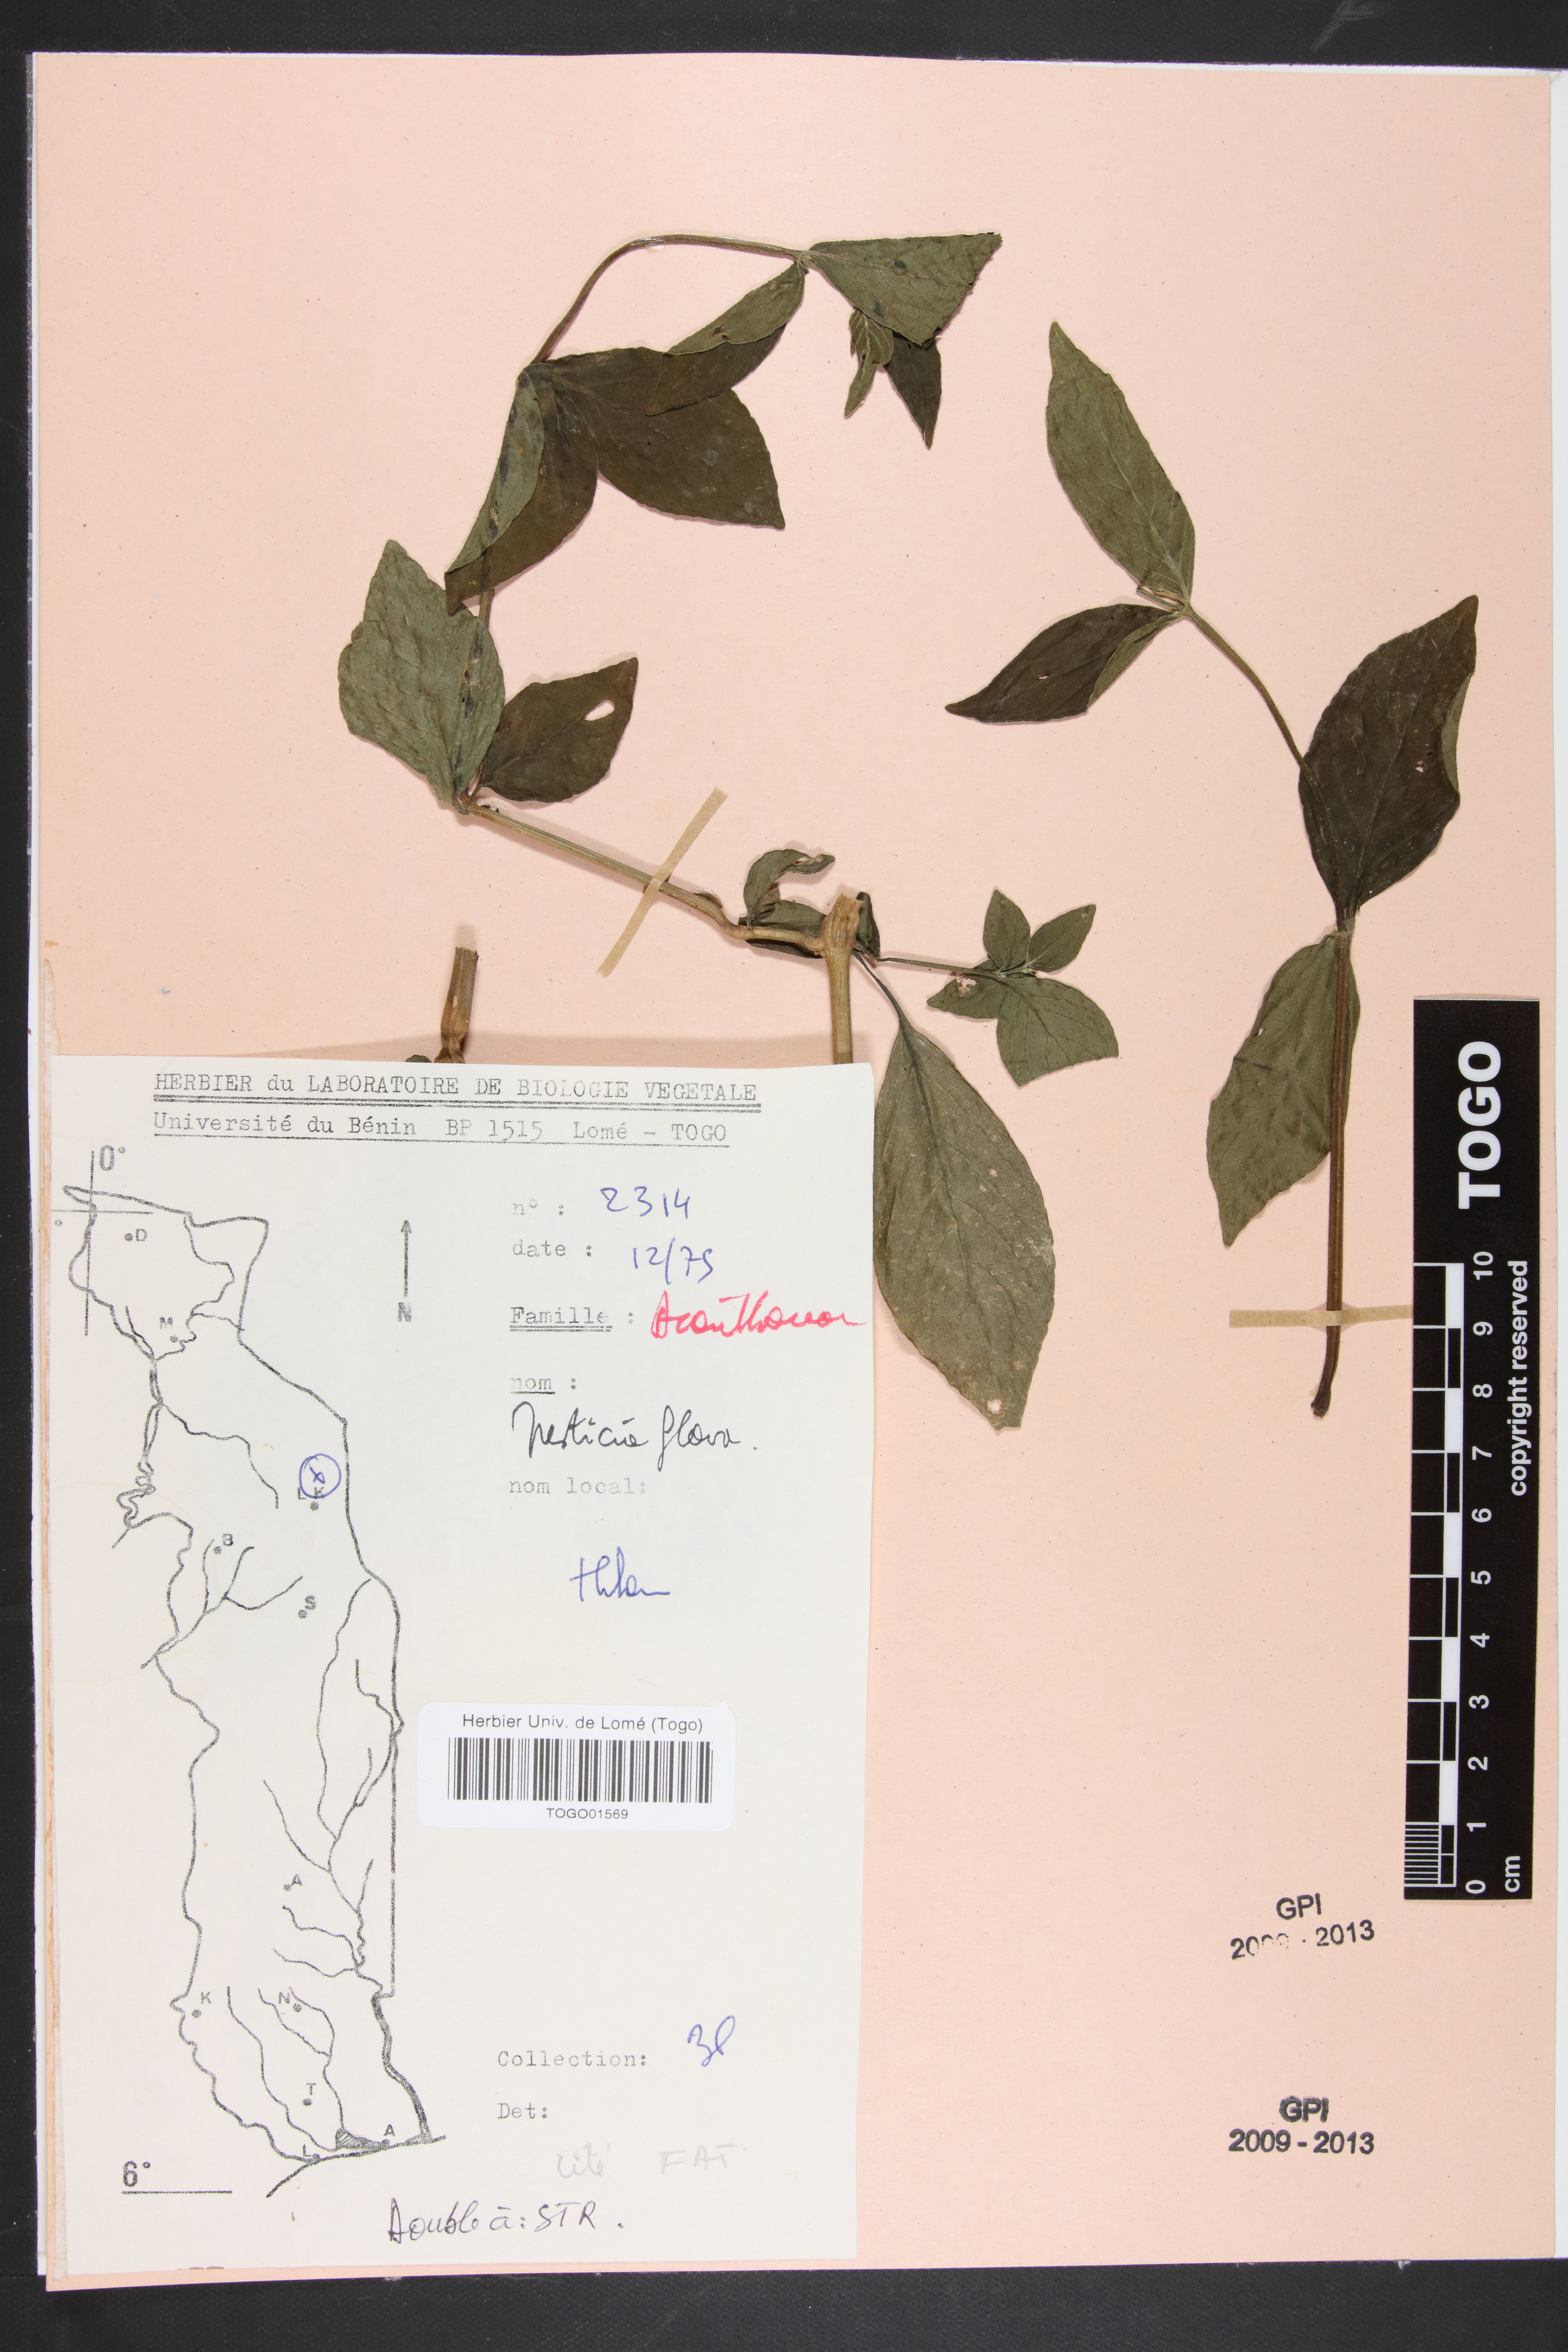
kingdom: Plantae
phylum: Tracheophyta
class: Magnoliopsida
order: Lamiales
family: Acanthaceae
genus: Justicia
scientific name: Justicia flava
